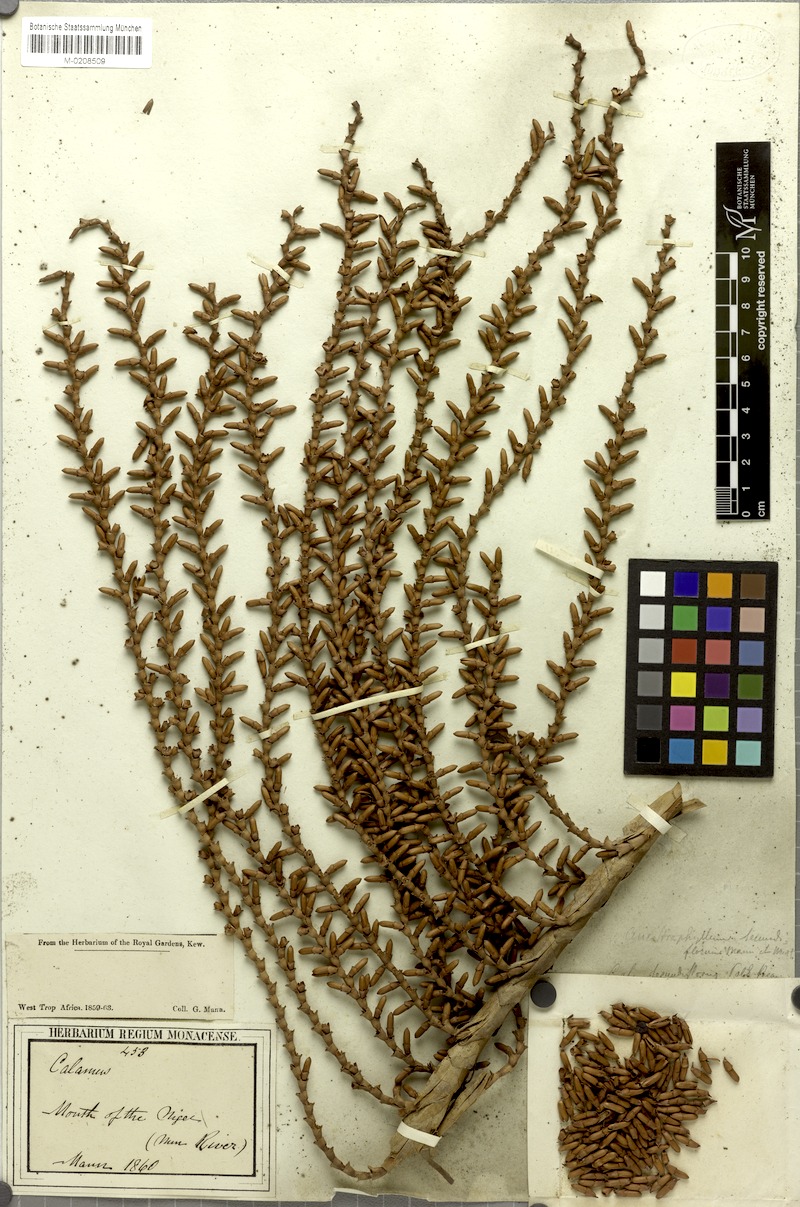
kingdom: Plantae
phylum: Tracheophyta
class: Liliopsida
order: Arecales
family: Arecaceae
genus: Laccosperma
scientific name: Laccosperma secundiflorum
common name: Rattan
